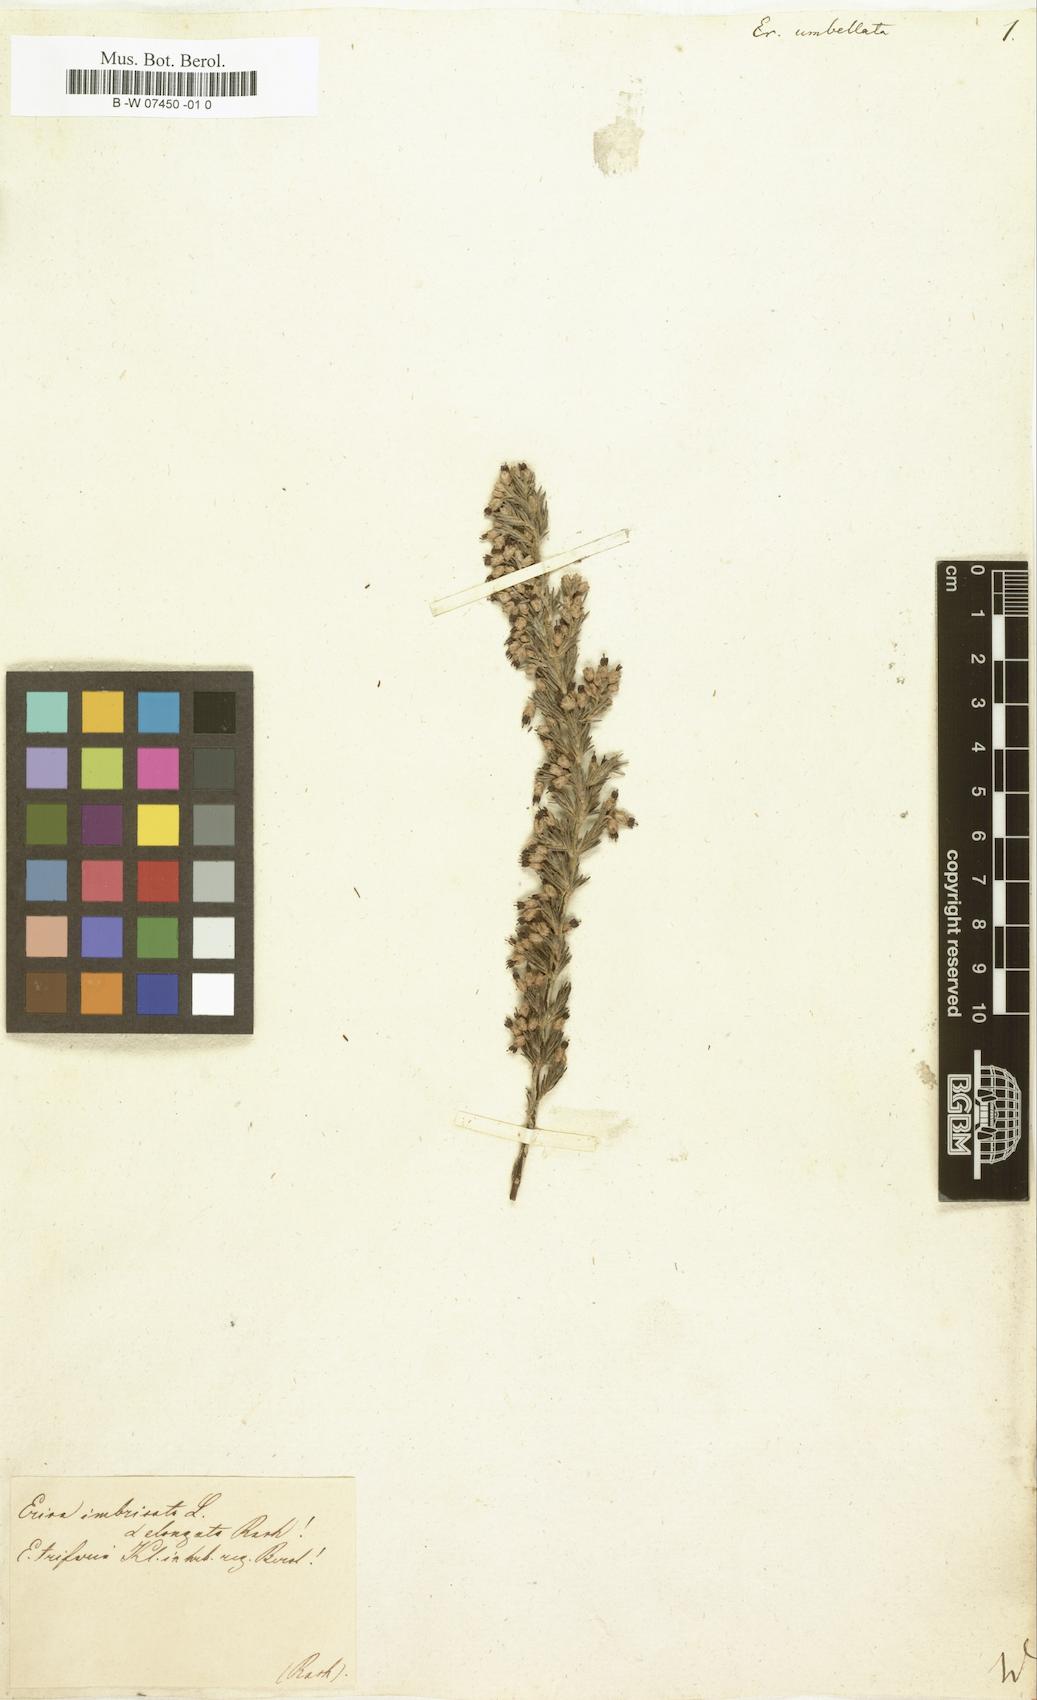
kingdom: Plantae
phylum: Tracheophyta
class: Magnoliopsida
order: Ericales
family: Ericaceae
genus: Erica
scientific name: Erica nutans
